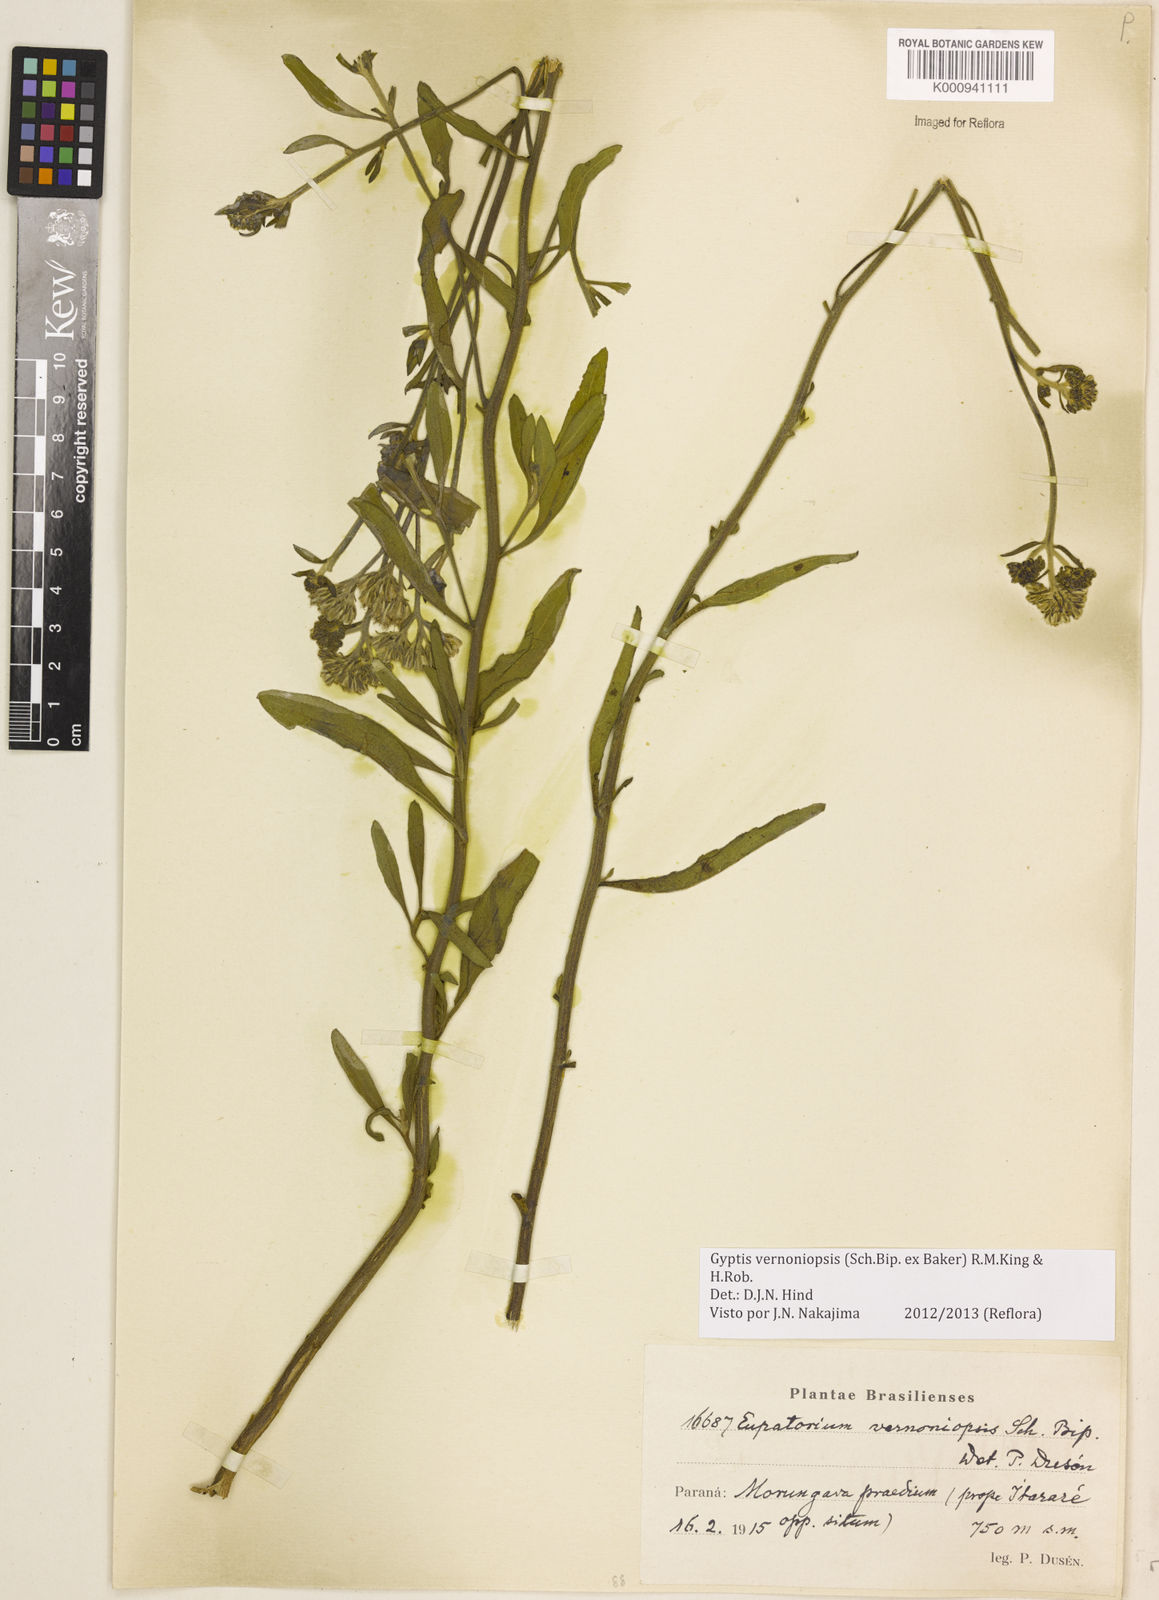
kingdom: Plantae
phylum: Tracheophyta
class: Magnoliopsida
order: Asterales
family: Asteraceae
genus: Gyptis
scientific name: Gyptis lanigera
